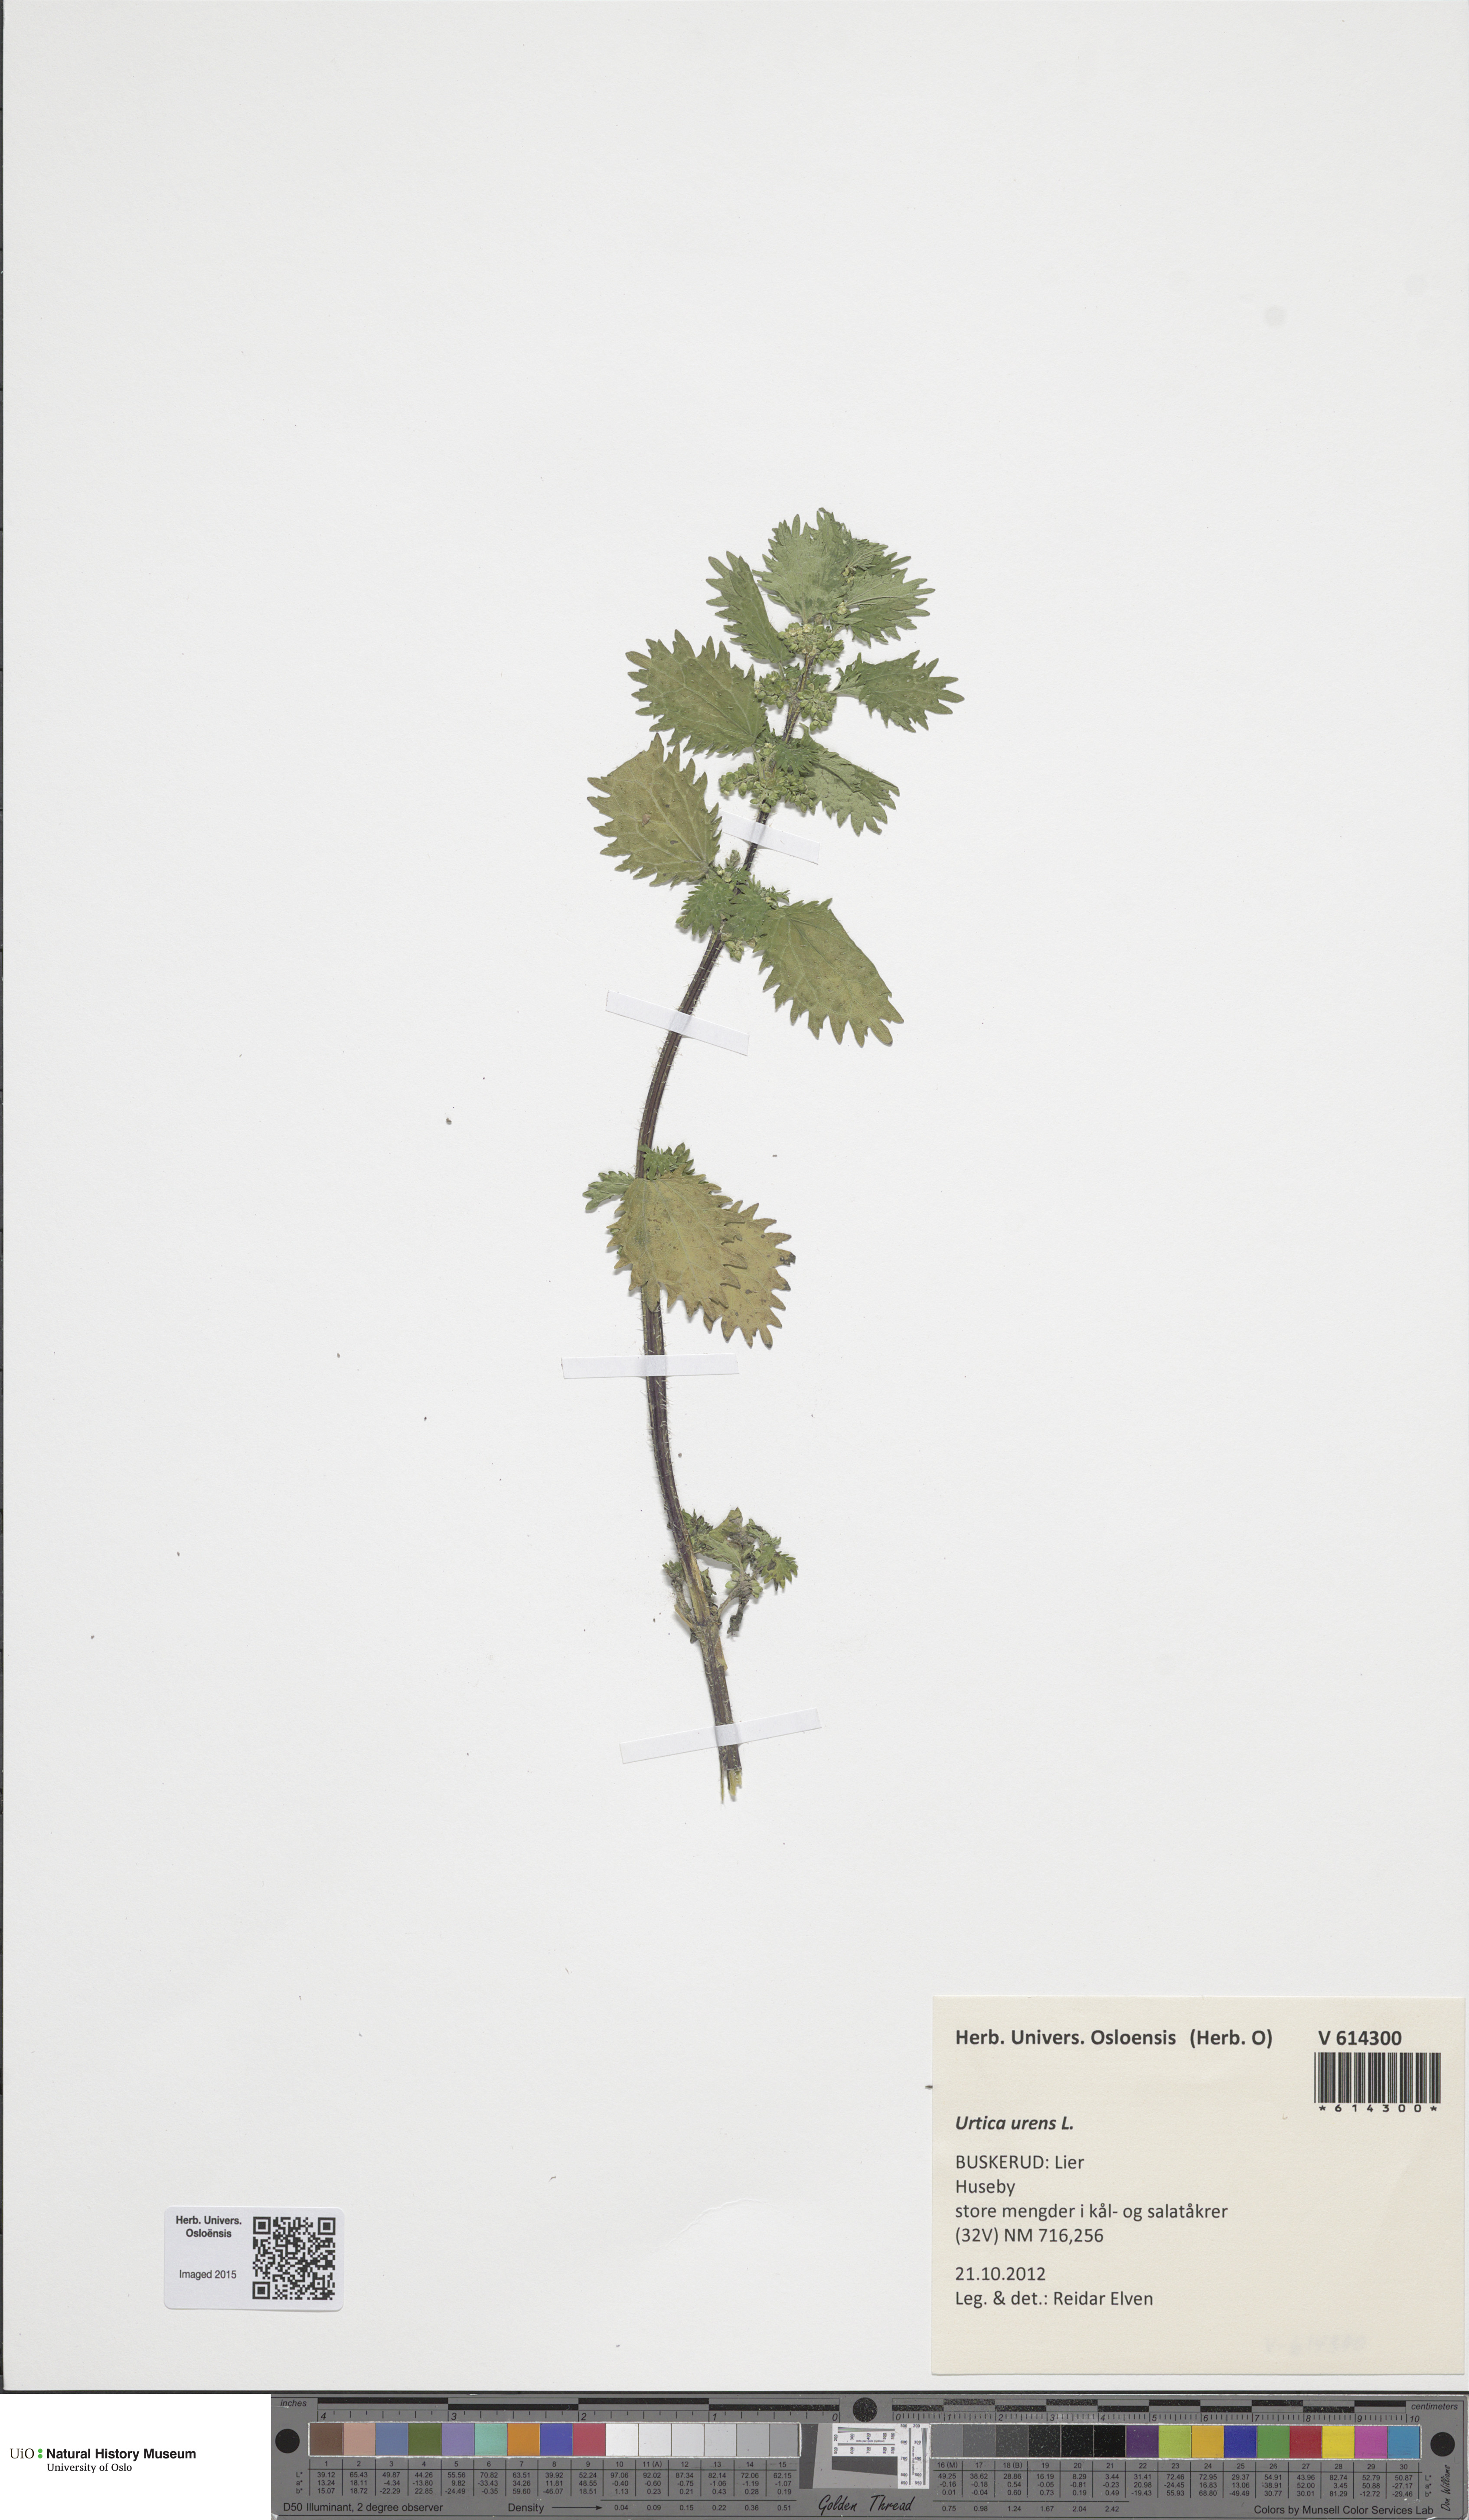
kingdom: Plantae
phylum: Tracheophyta
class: Magnoliopsida
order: Rosales
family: Urticaceae
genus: Urtica
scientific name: Urtica urens
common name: Dwarf nettle
